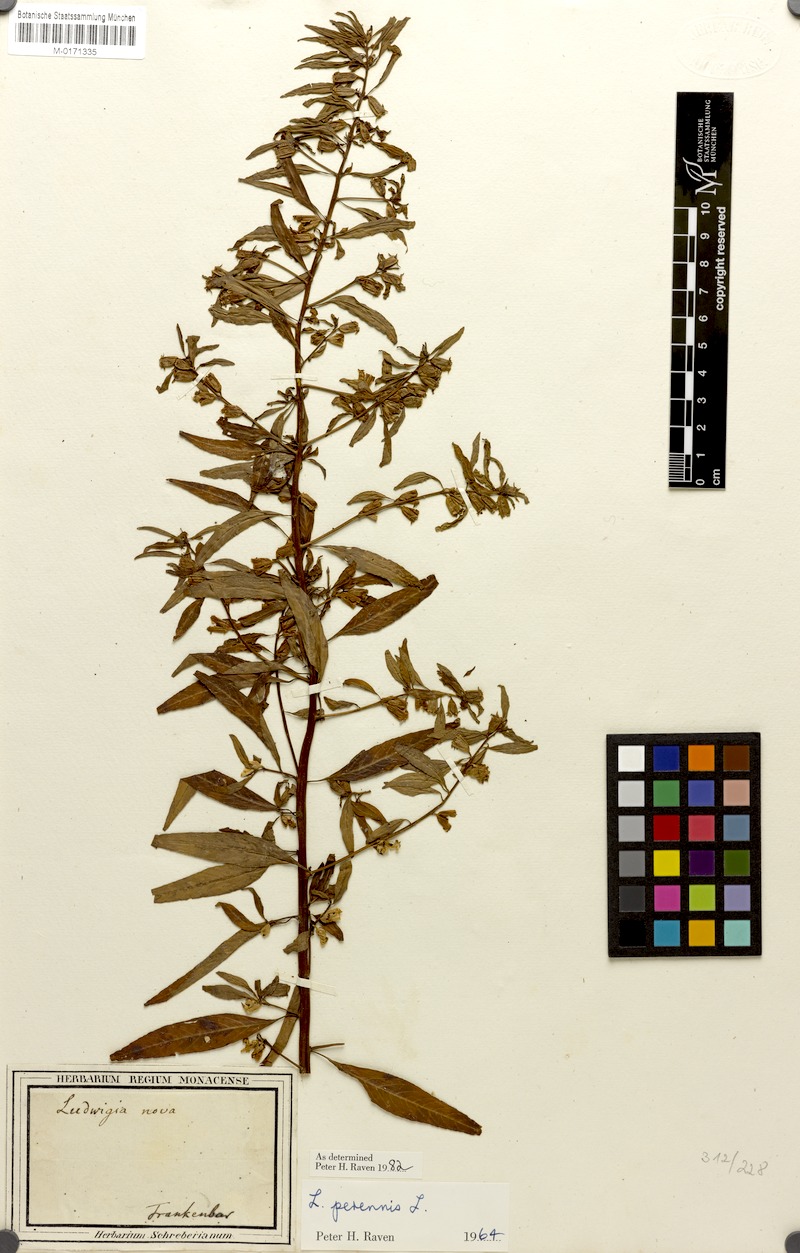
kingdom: Plantae
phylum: Tracheophyta
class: Magnoliopsida
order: Myrtales
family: Onagraceae
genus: Ludwigia
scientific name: Ludwigia perennis
